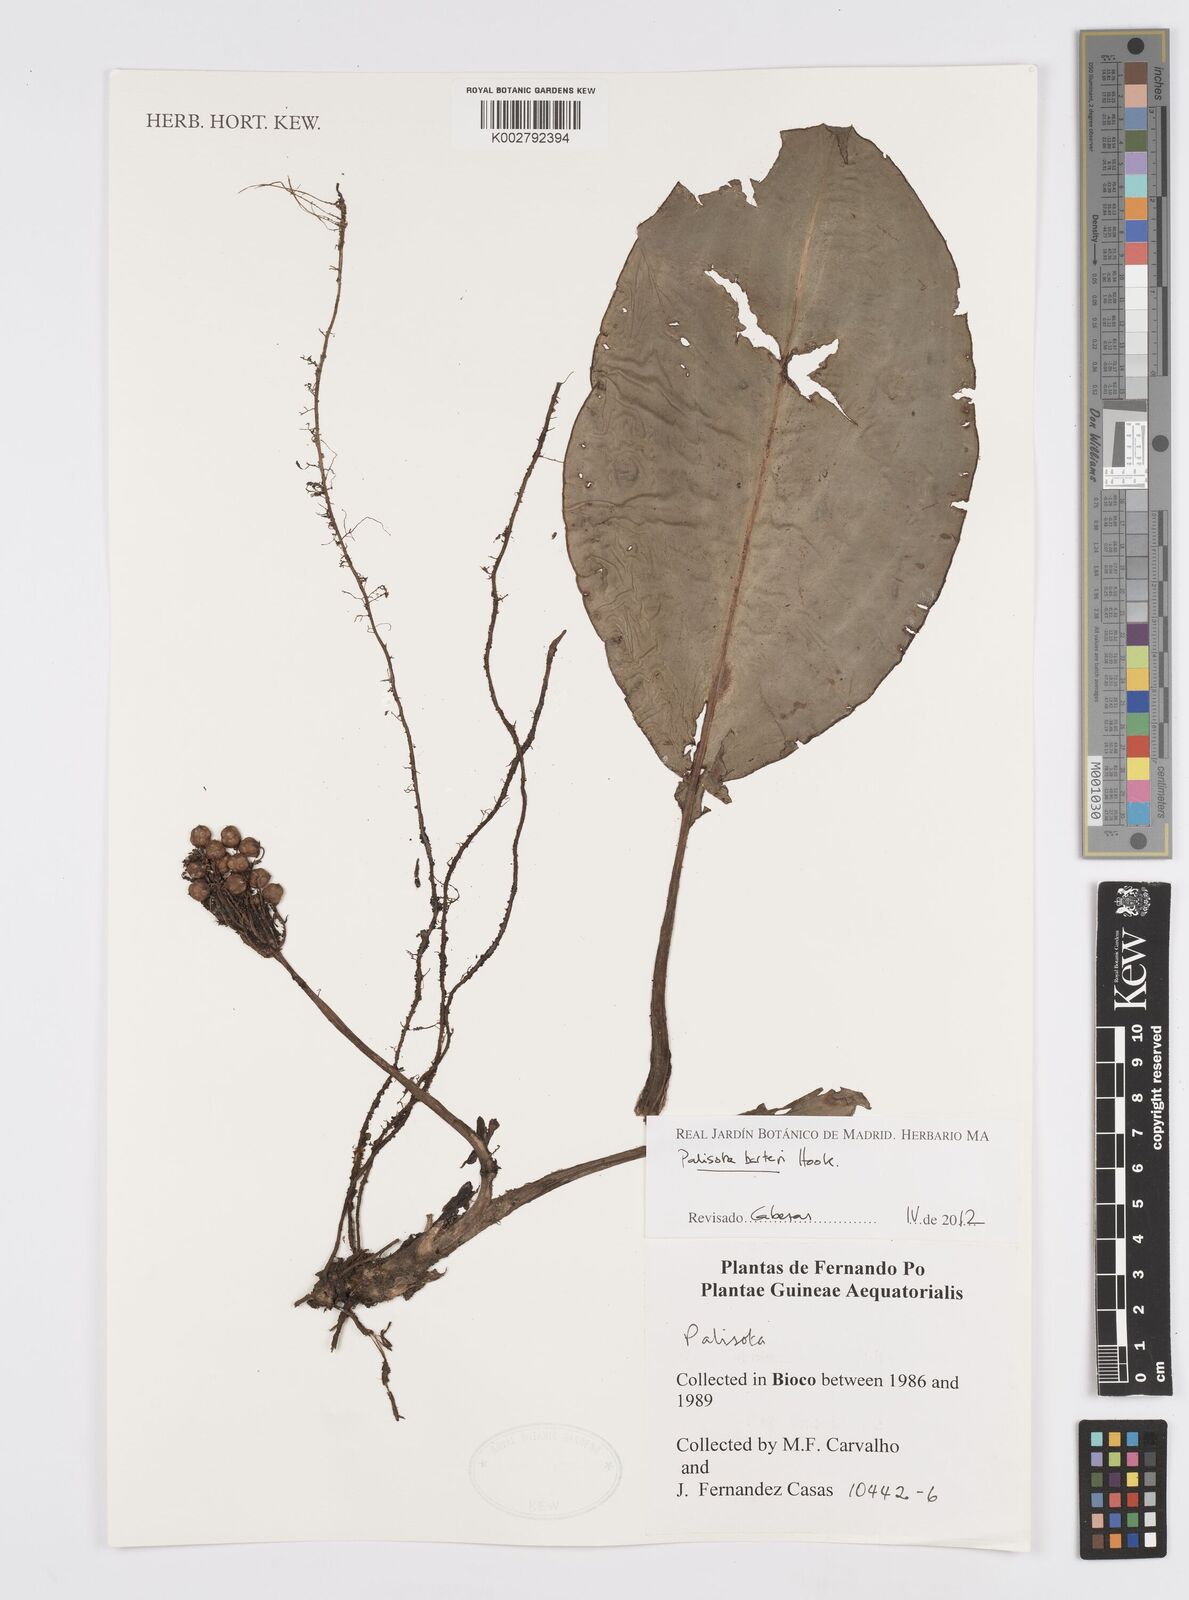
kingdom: Plantae
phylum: Tracheophyta
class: Liliopsida
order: Commelinales
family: Commelinaceae
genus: Palisota
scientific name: Palisota barteri
